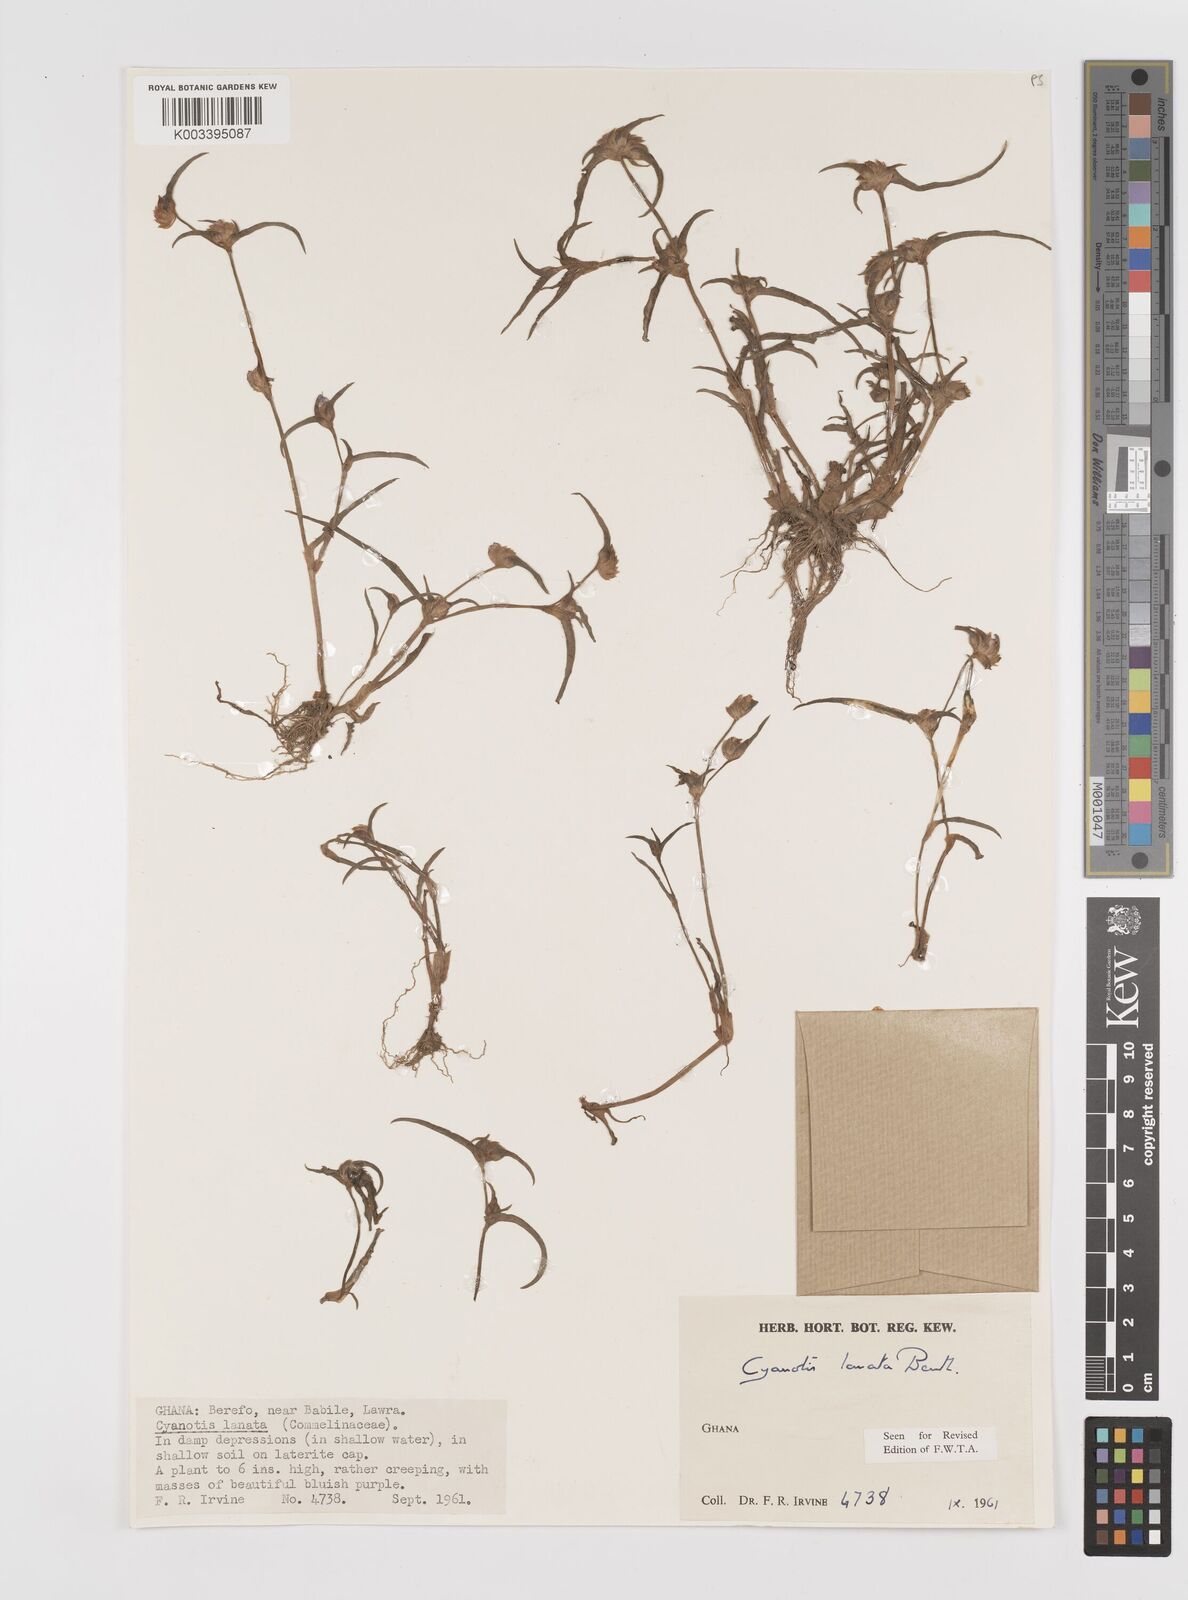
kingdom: Plantae
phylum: Tracheophyta
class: Liliopsida
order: Commelinales
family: Commelinaceae
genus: Cyanotis
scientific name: Cyanotis lanata
